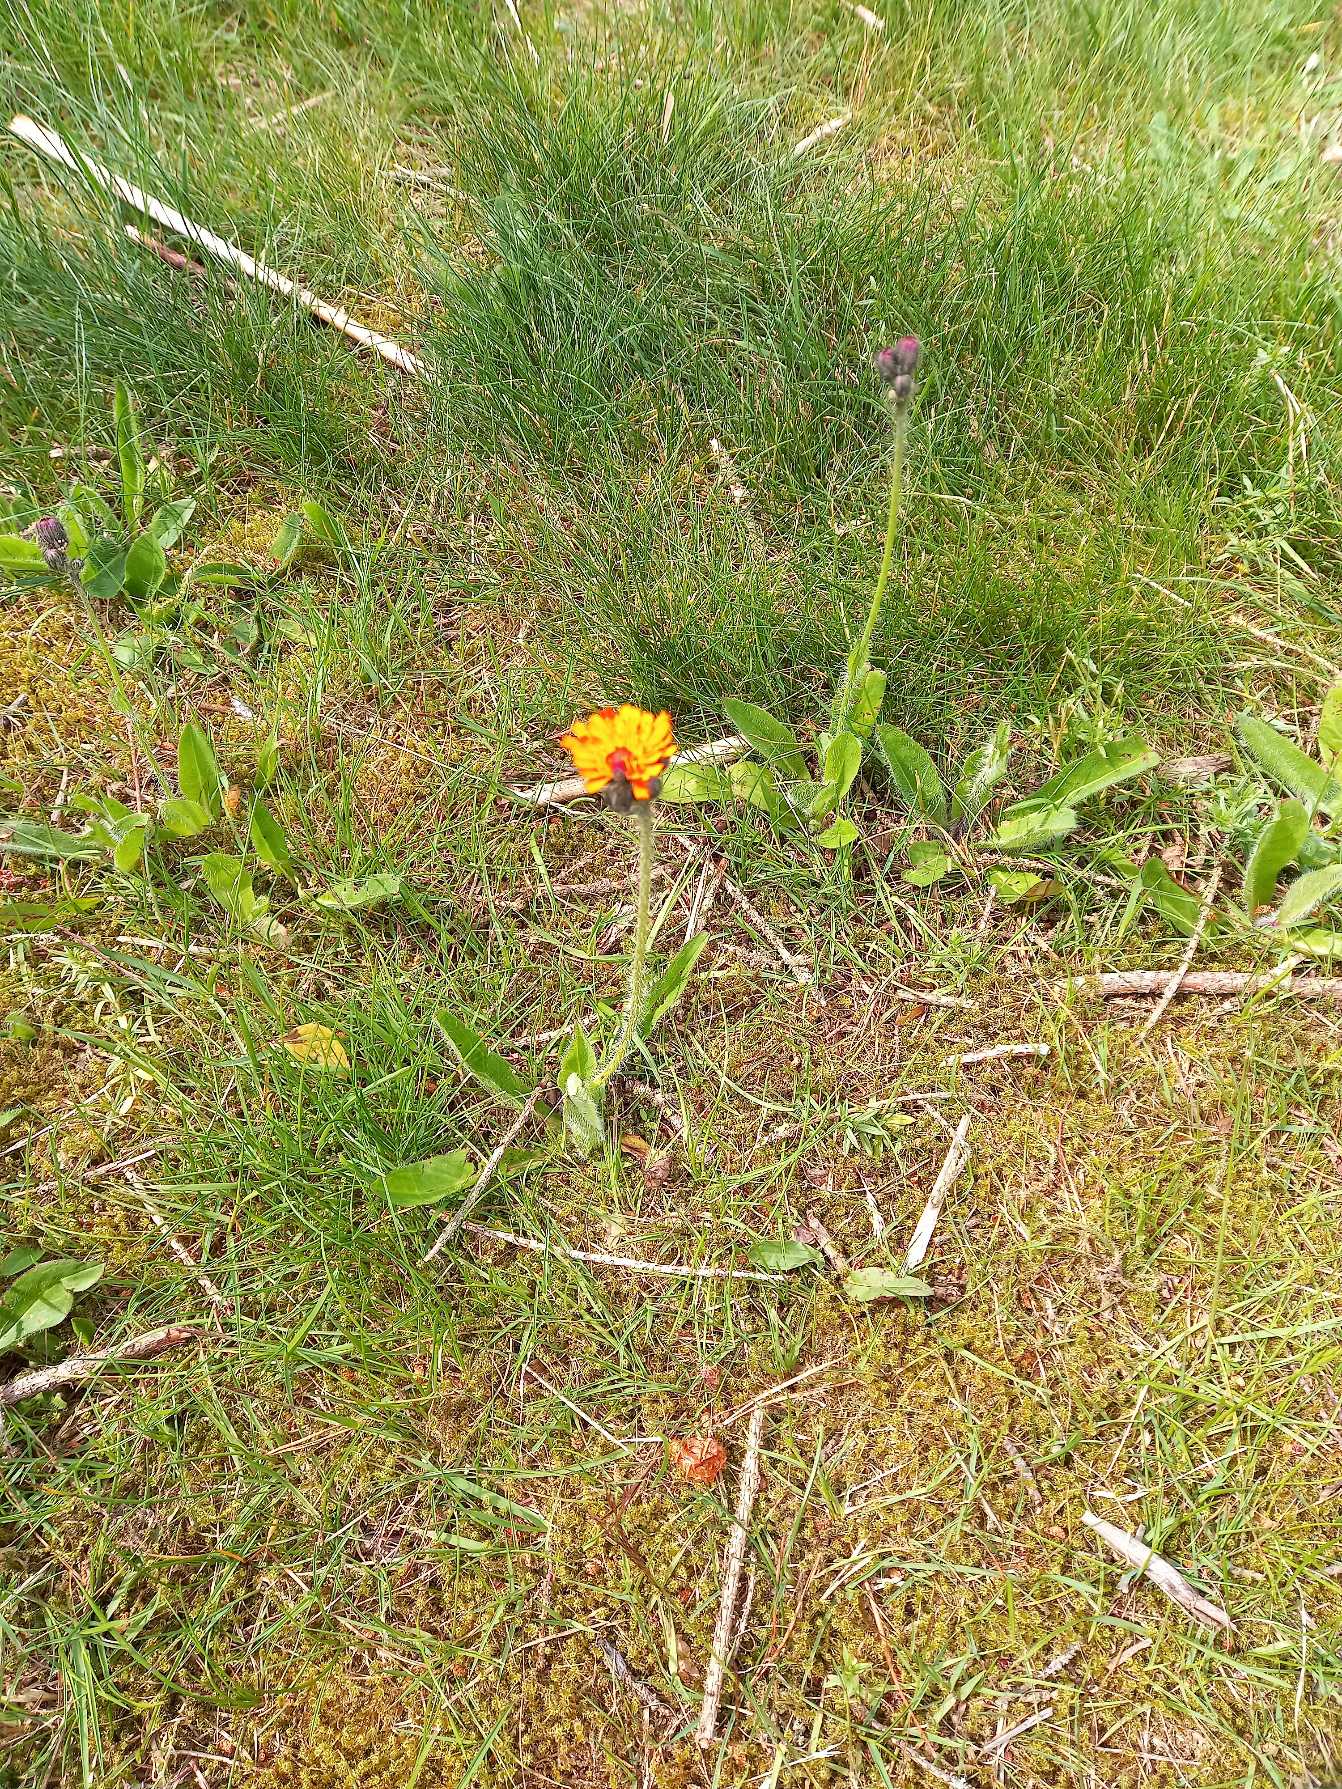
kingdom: Plantae
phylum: Tracheophyta
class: Magnoliopsida
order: Asterales
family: Asteraceae
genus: Pilosella
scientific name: Pilosella
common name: Pomerans-høgeurt × håret høgeurt
